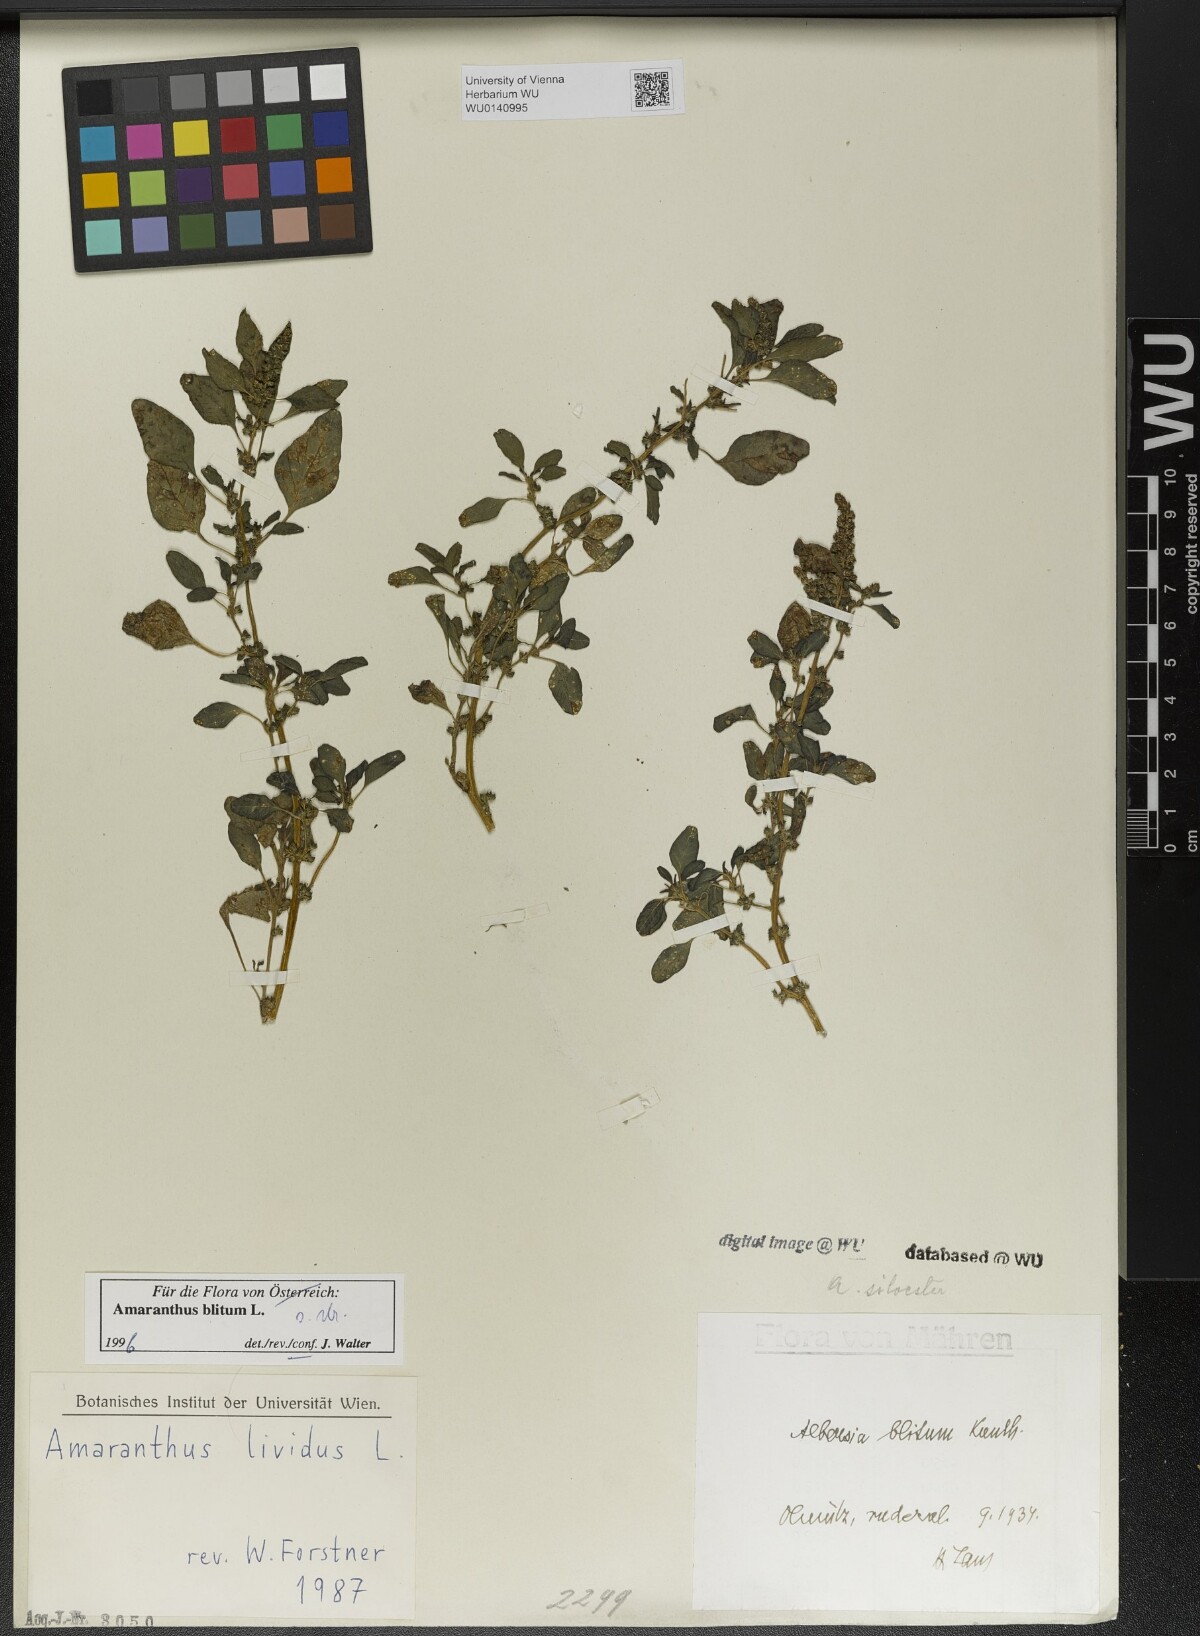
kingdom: Plantae
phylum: Tracheophyta
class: Magnoliopsida
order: Caryophyllales
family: Amaranthaceae
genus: Amaranthus
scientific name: Amaranthus blitum
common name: Purple amaranth
